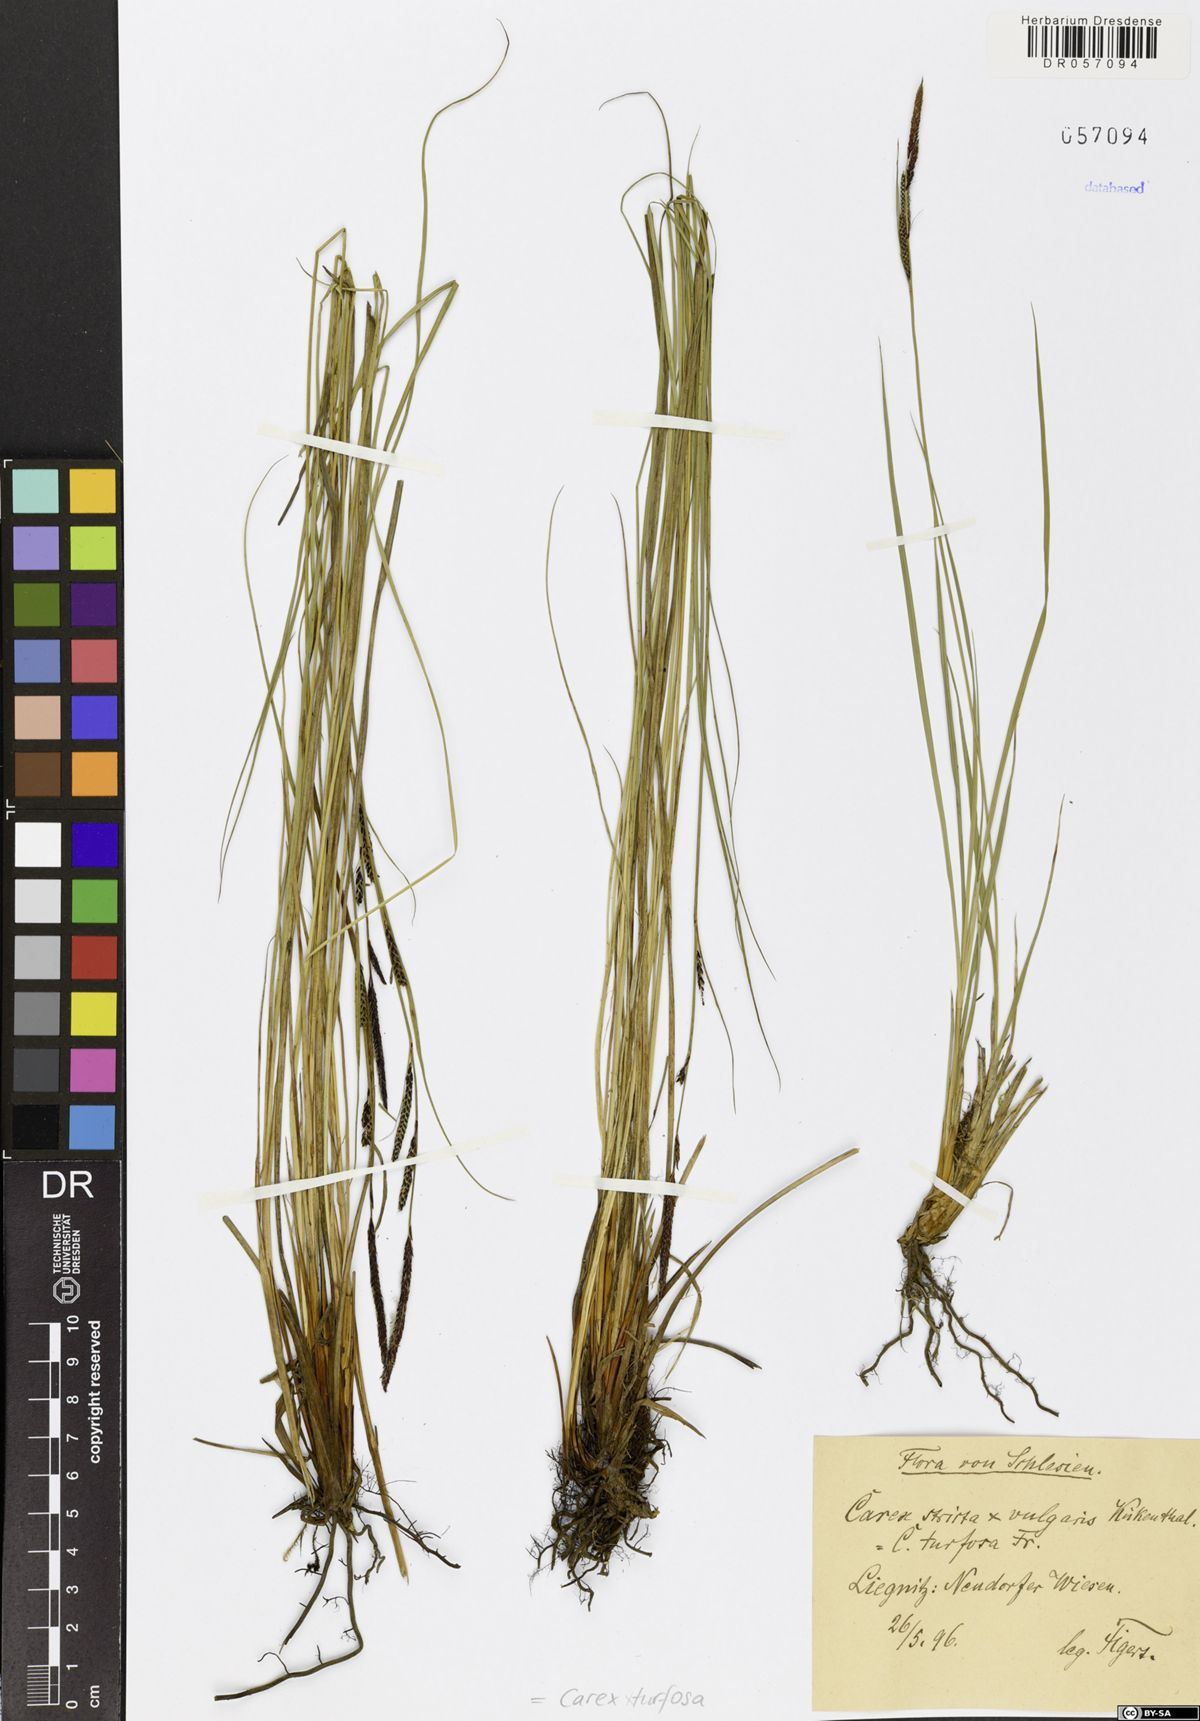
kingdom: Plantae
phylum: Tracheophyta
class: Liliopsida
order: Poales
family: Cyperaceae
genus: Carex
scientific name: Carex turfosa
